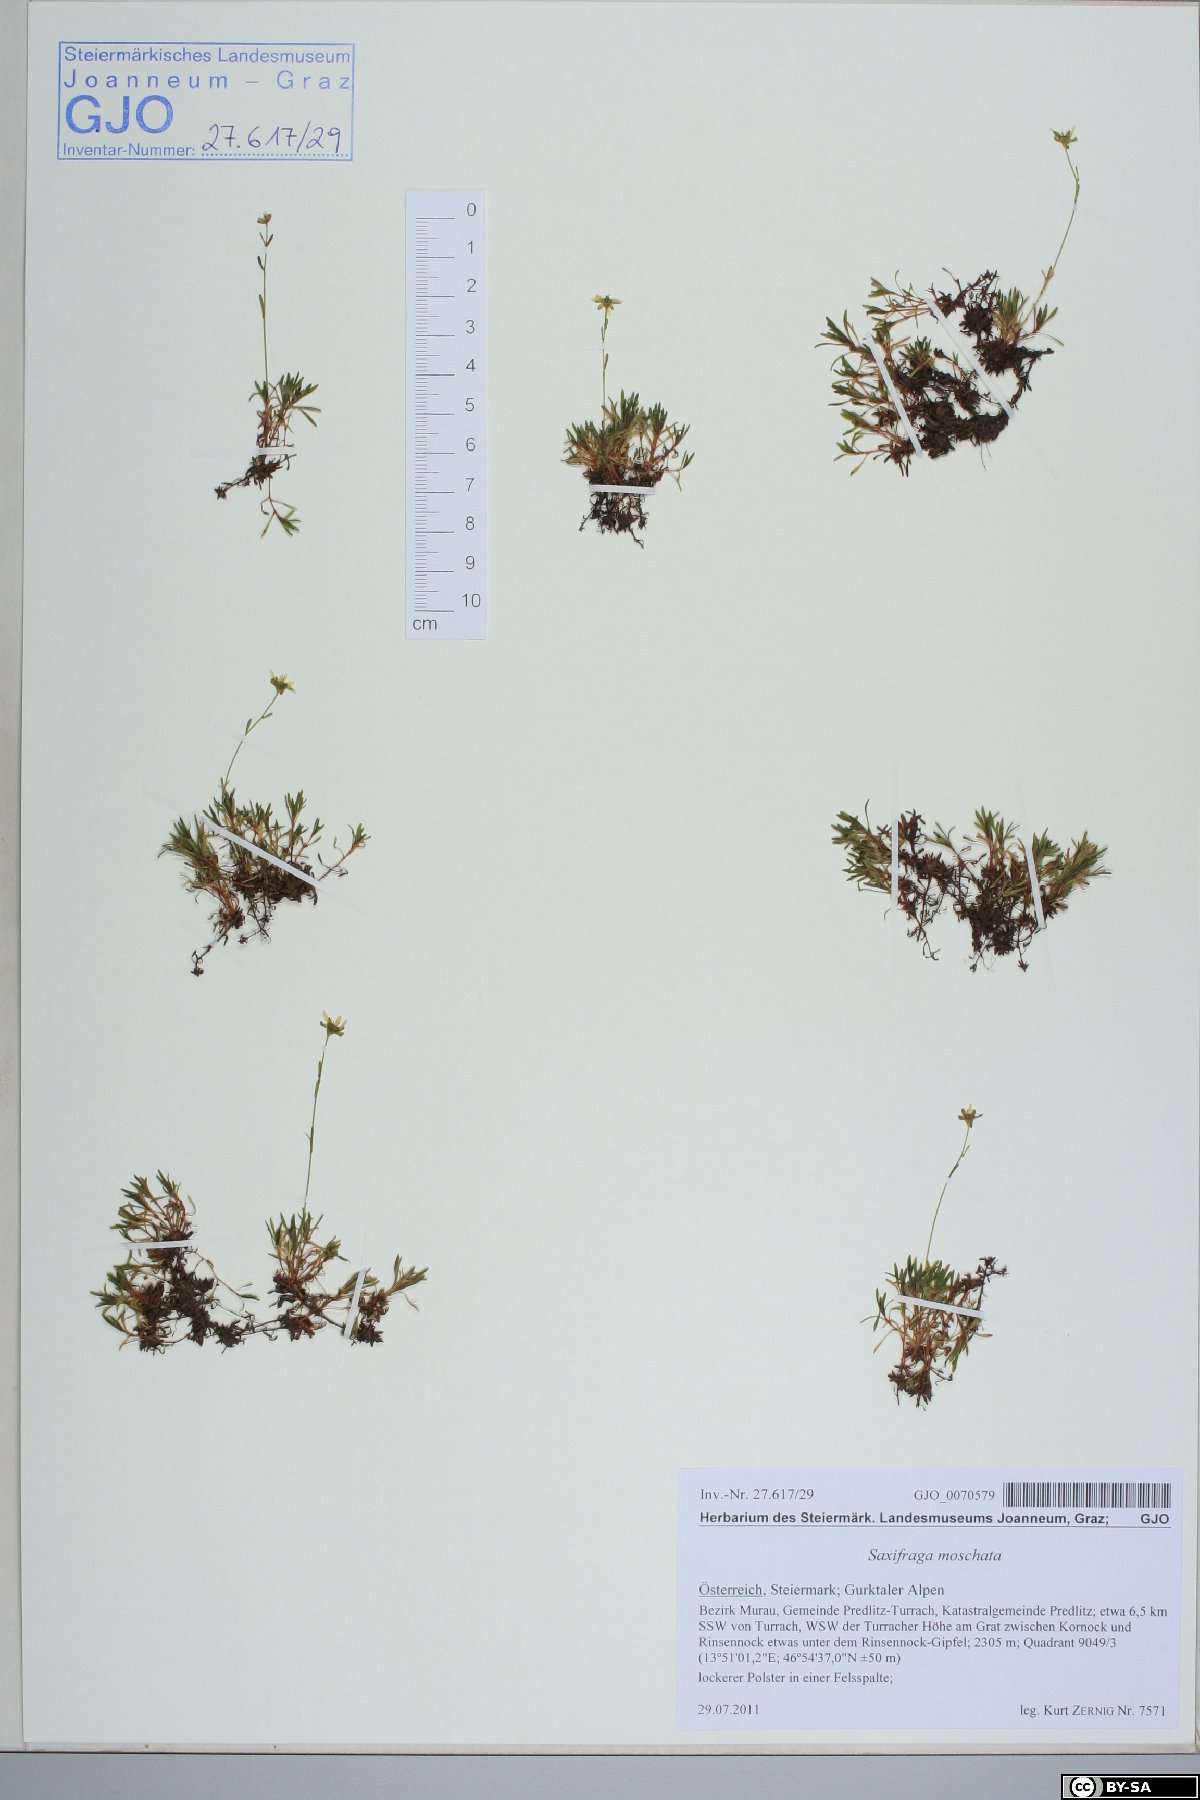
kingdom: Plantae
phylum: Tracheophyta
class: Magnoliopsida
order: Saxifragales
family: Saxifragaceae
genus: Saxifraga
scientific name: Saxifraga moschata
